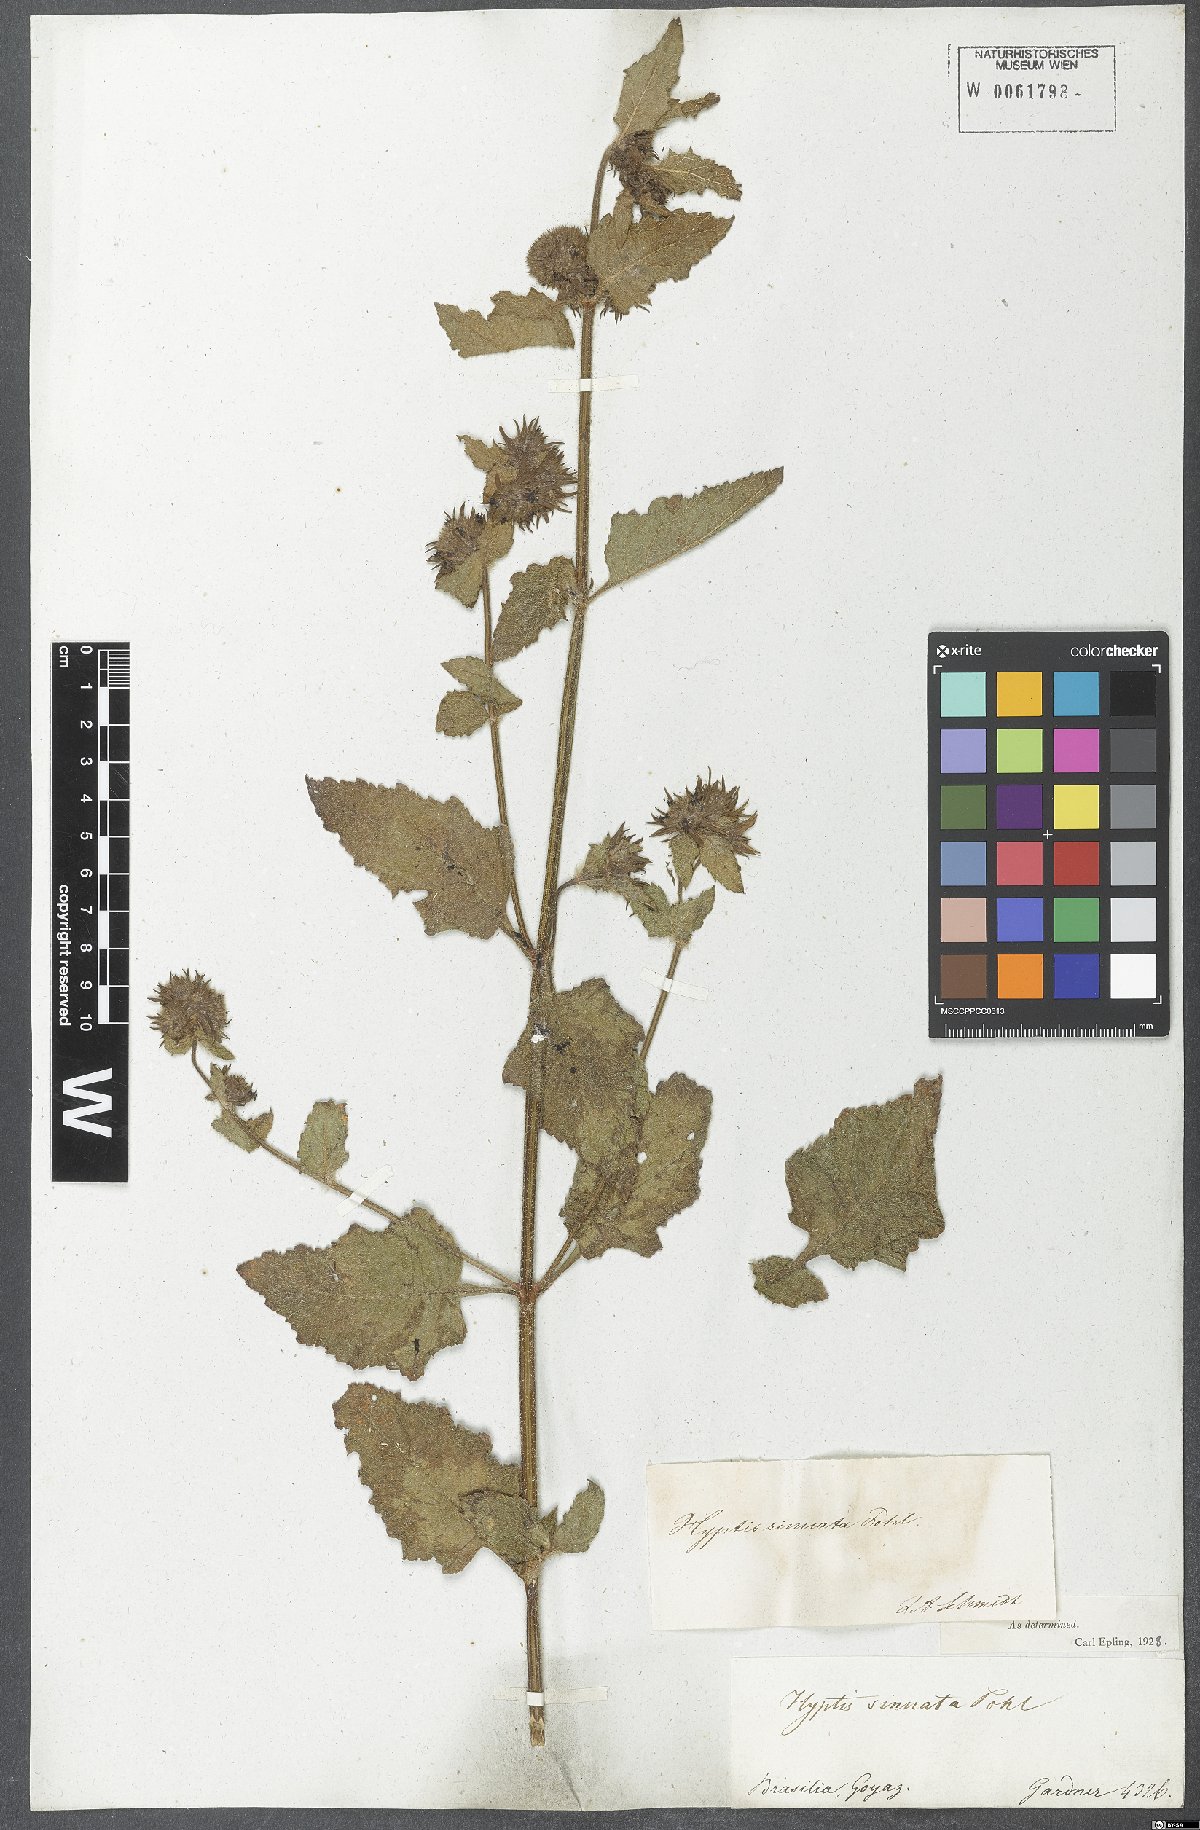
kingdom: Plantae
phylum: Tracheophyta
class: Magnoliopsida
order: Lamiales
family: Lamiaceae
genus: Hyptis
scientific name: Hyptis sinuata
